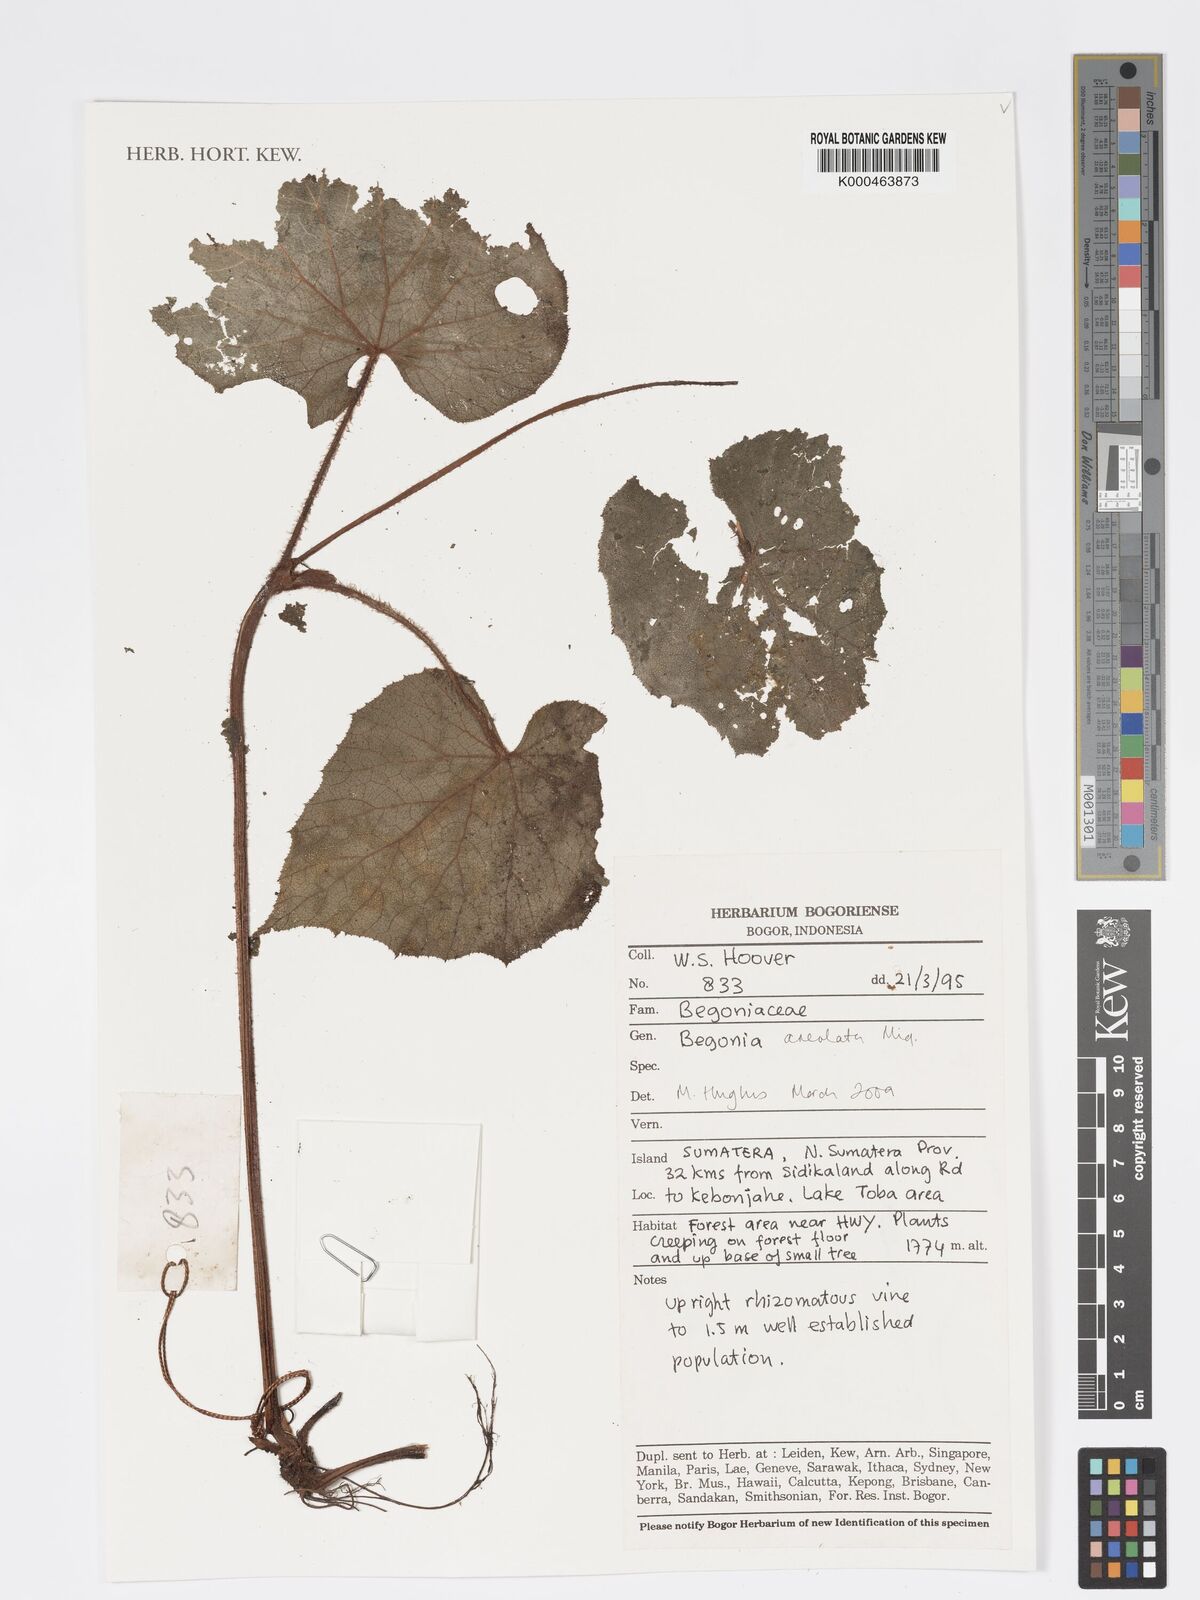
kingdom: Plantae
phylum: Tracheophyta
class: Magnoliopsida
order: Cucurbitales
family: Begoniaceae
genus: Begonia
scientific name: Begonia
